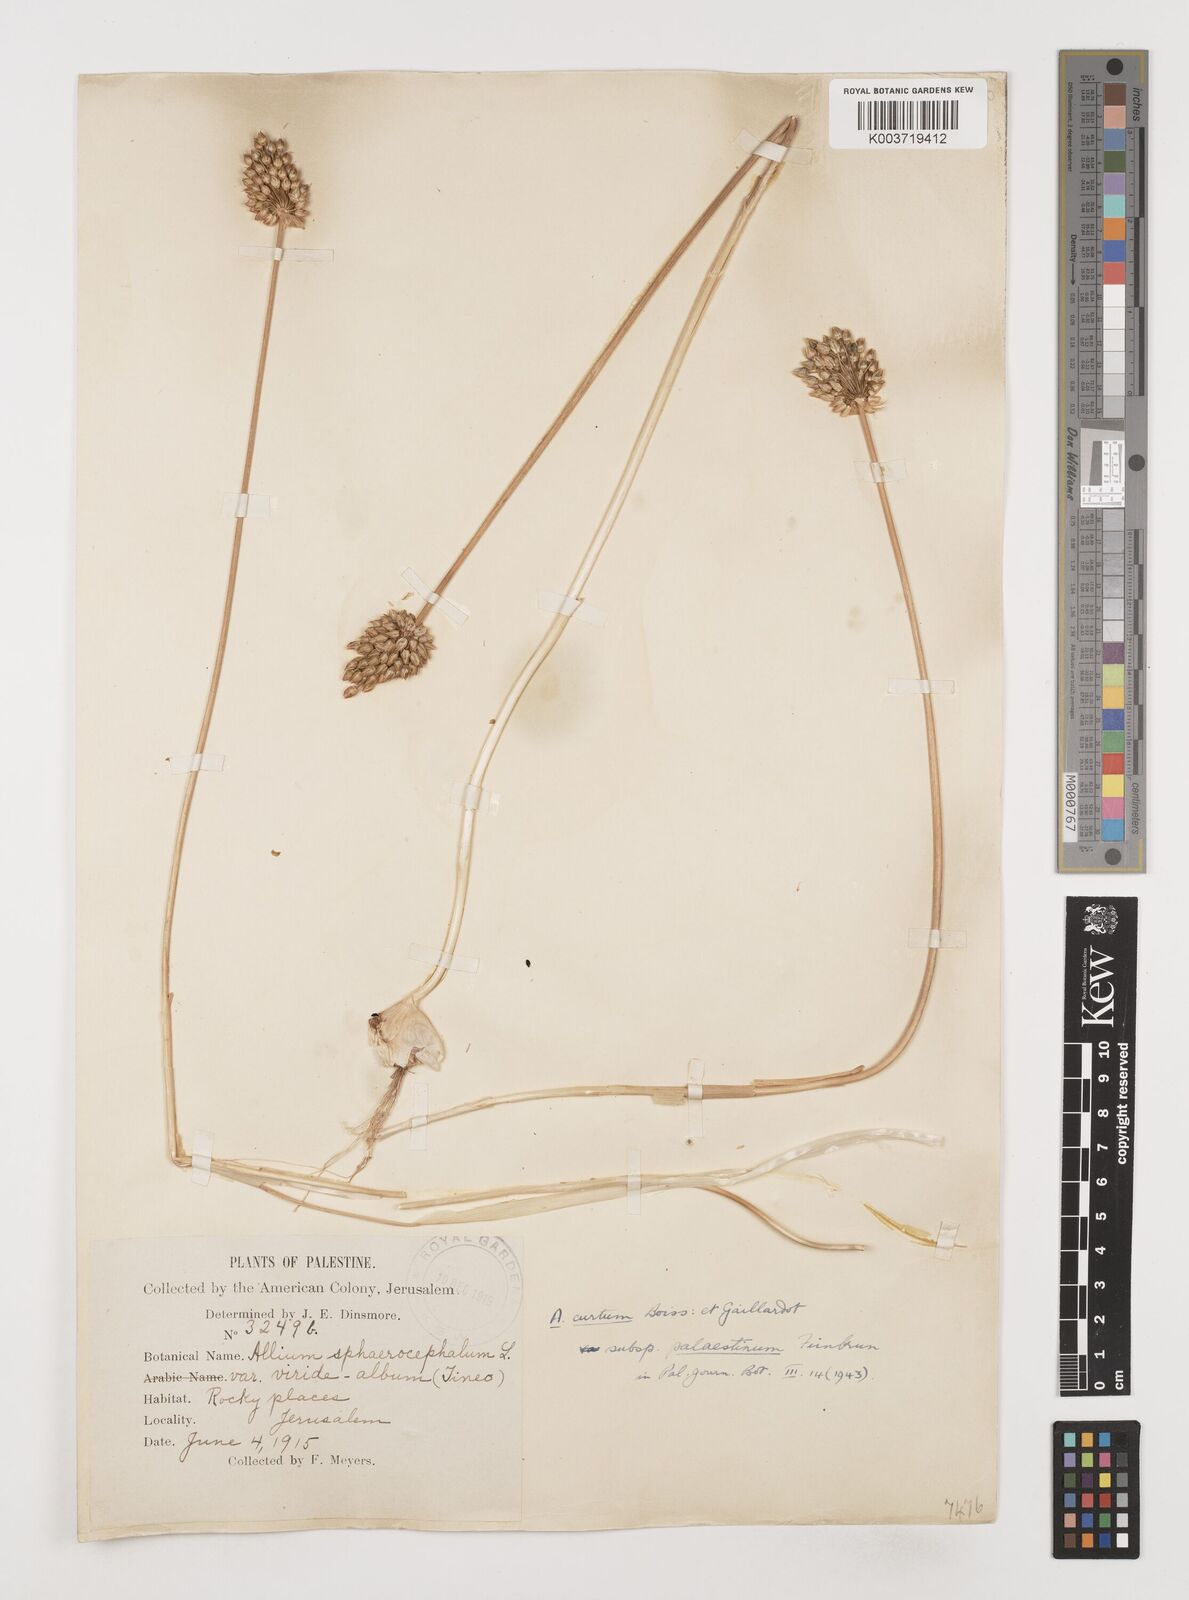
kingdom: Plantae
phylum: Tracheophyta
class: Liliopsida
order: Asparagales
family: Amaryllidaceae
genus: Allium
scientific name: Allium curtum
